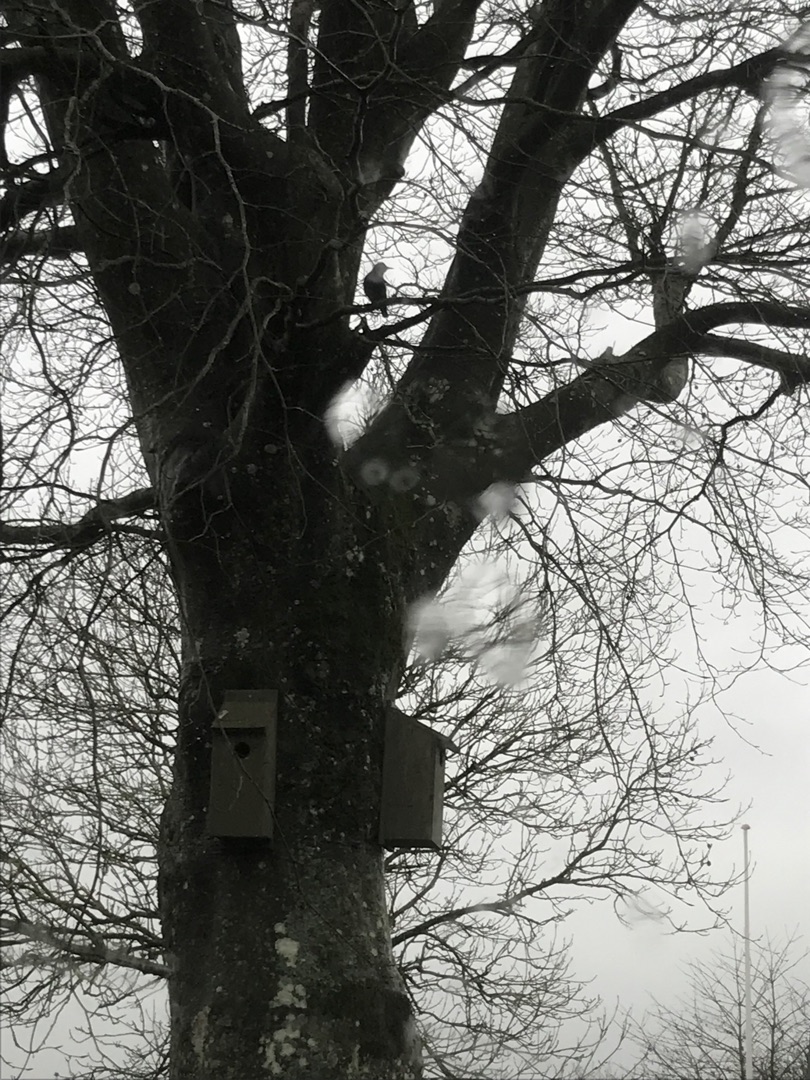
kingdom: Animalia
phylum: Chordata
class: Aves
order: Passeriformes
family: Sturnidae
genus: Sturnus
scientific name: Sturnus vulgaris
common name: Stær
